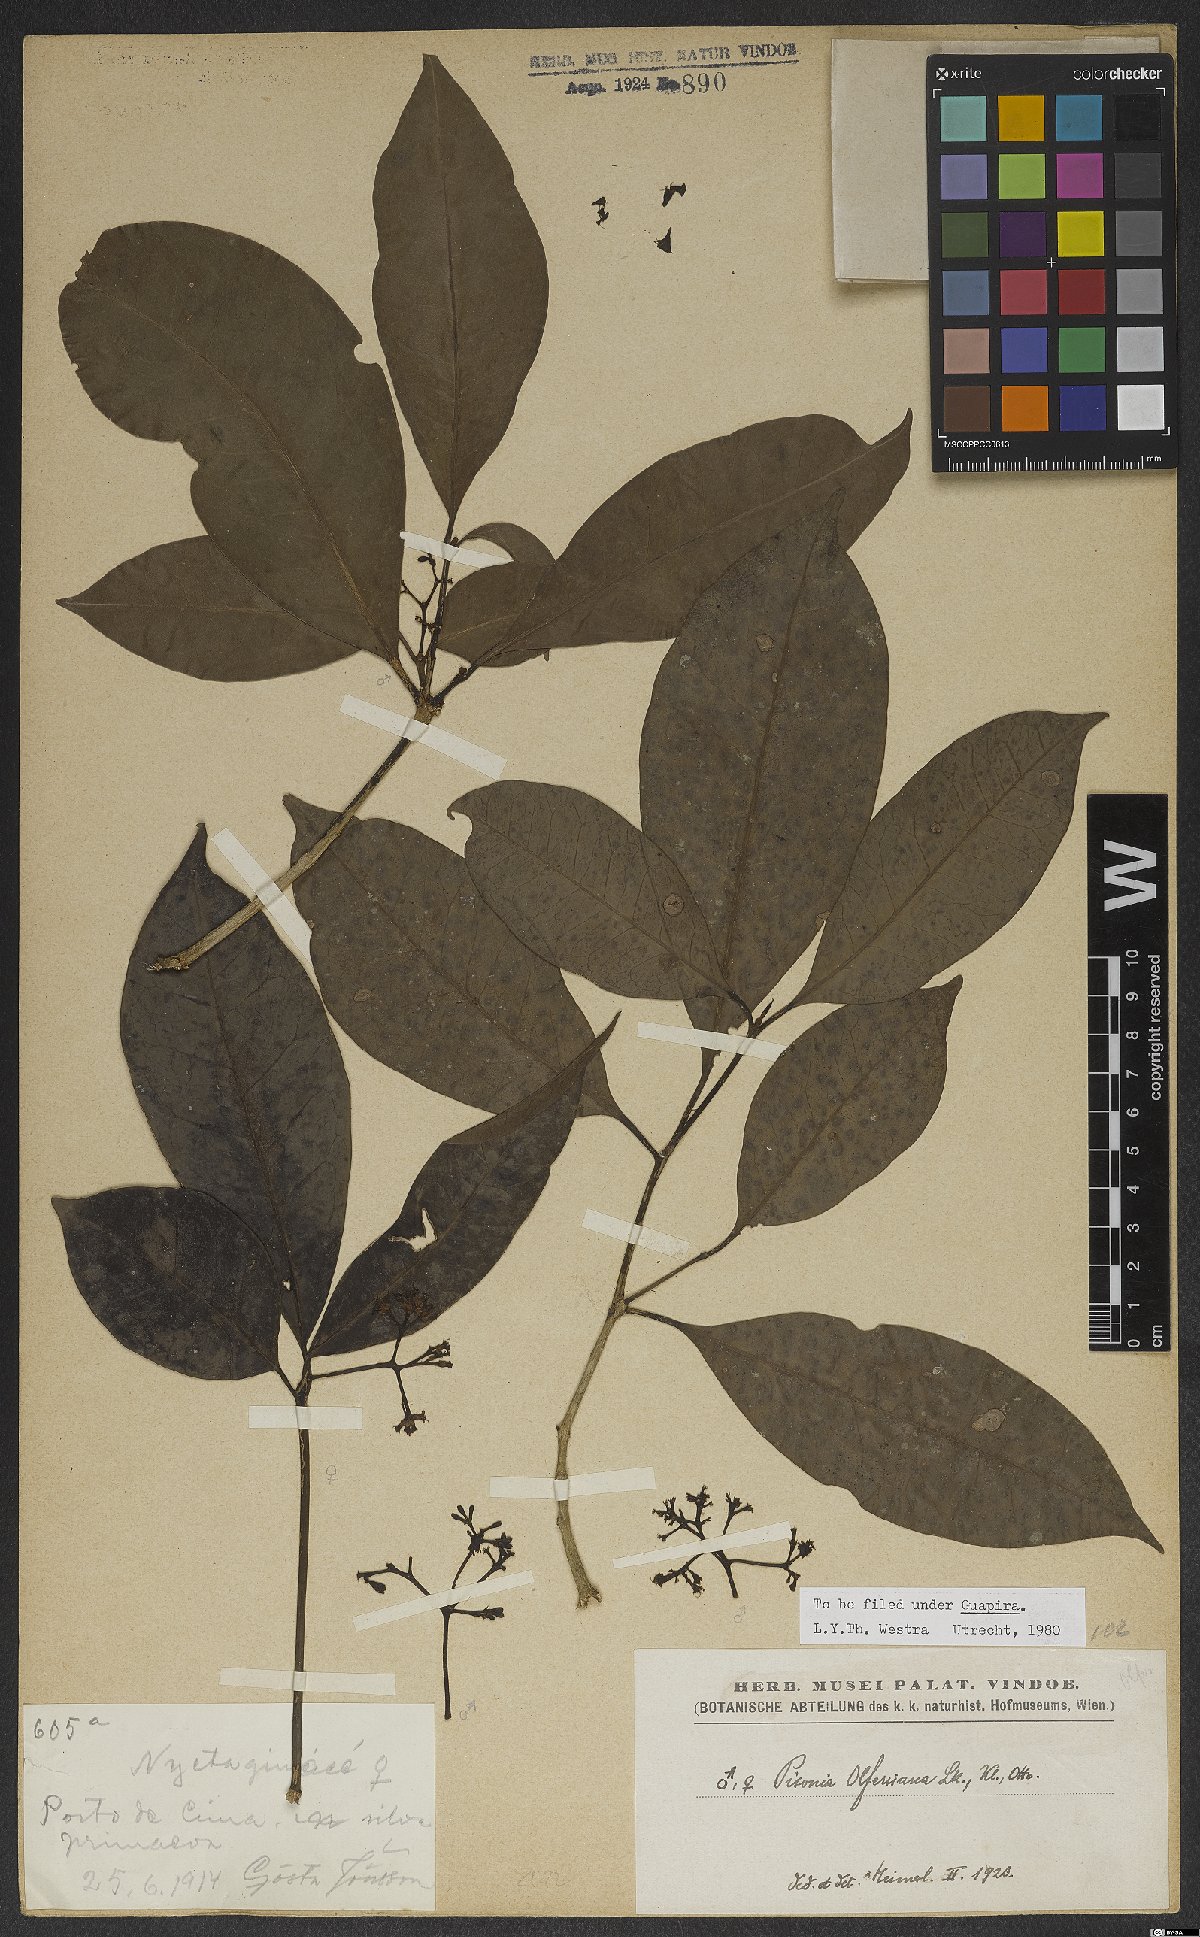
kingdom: Plantae
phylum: Tracheophyta
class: Magnoliopsida
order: Caryophyllales
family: Nyctaginaceae
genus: Guapira
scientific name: Guapira opposita
